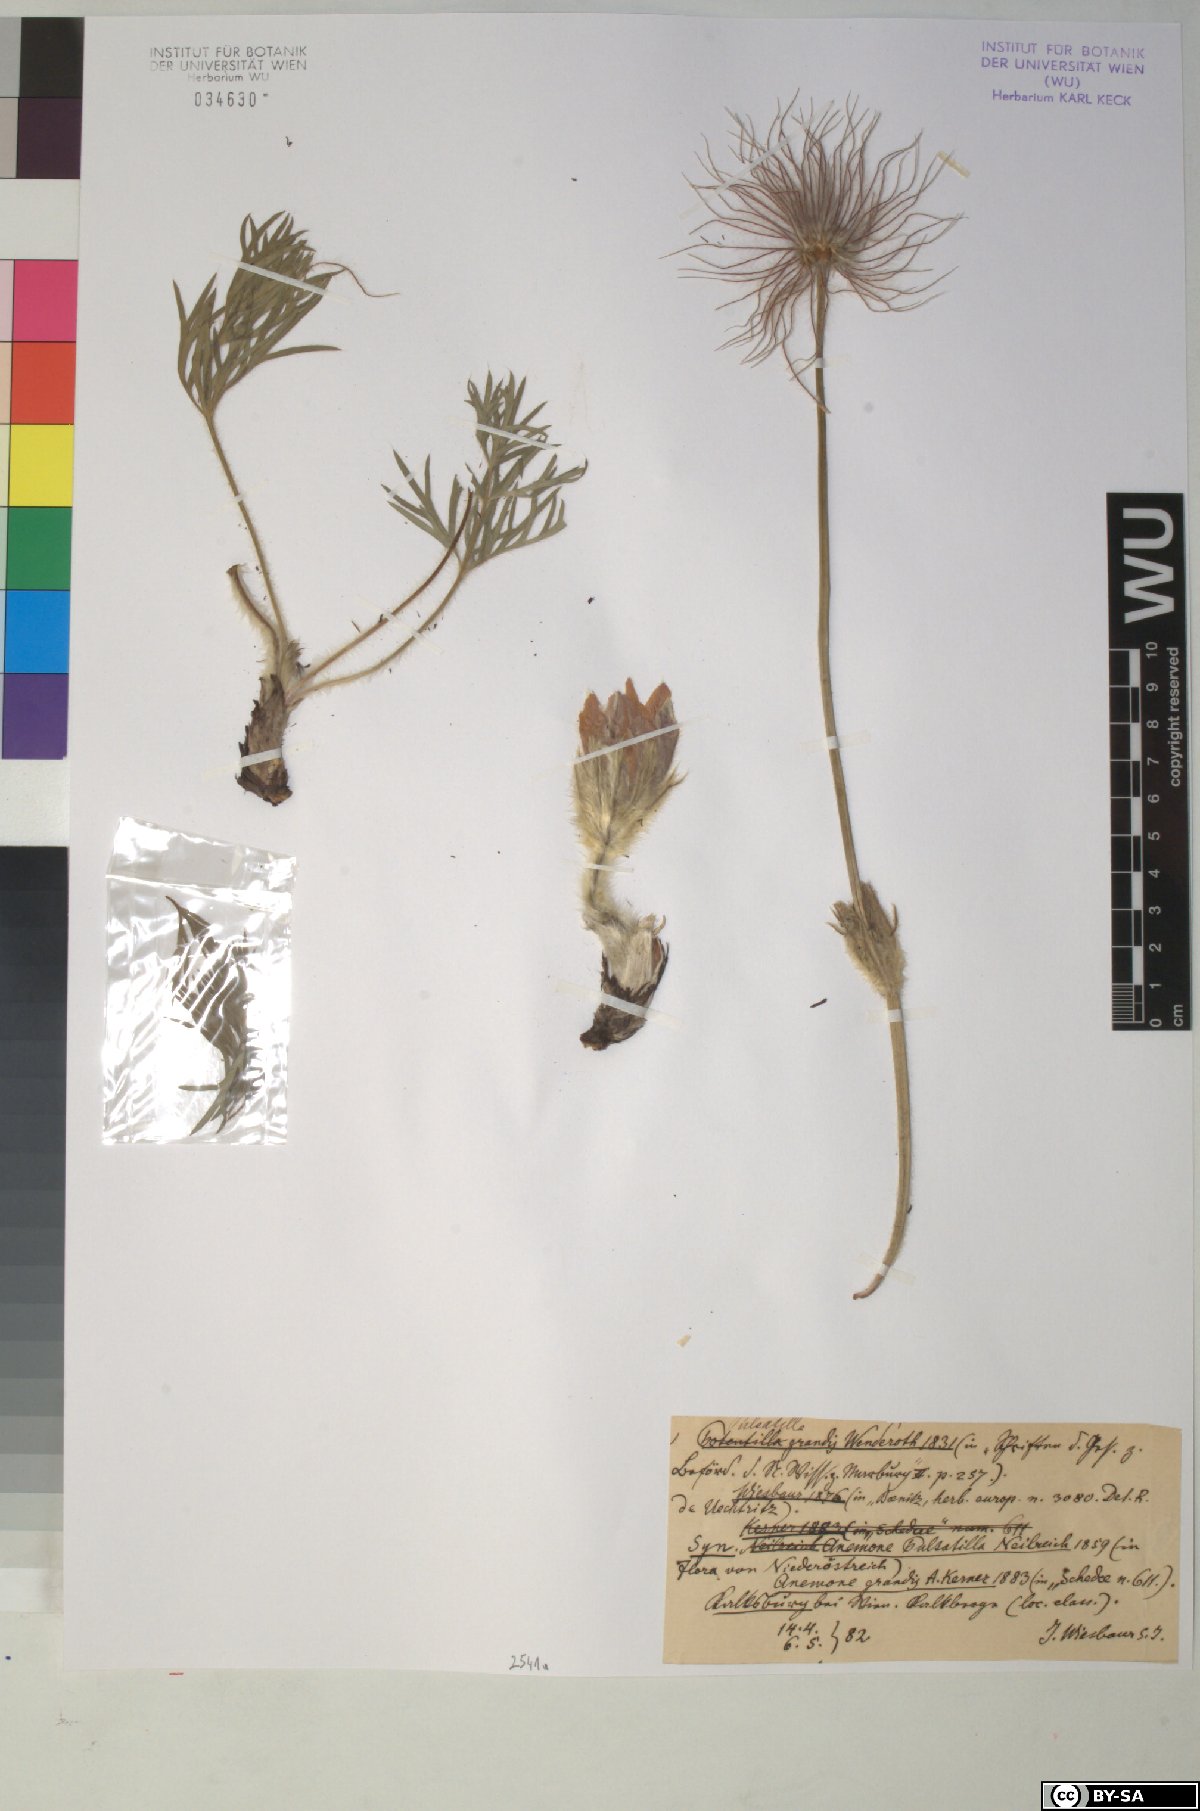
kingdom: Plantae
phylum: Tracheophyta
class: Magnoliopsida
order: Ranunculales
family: Ranunculaceae
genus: Pulsatilla
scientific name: Pulsatilla grandis
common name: Greater pasque flower
